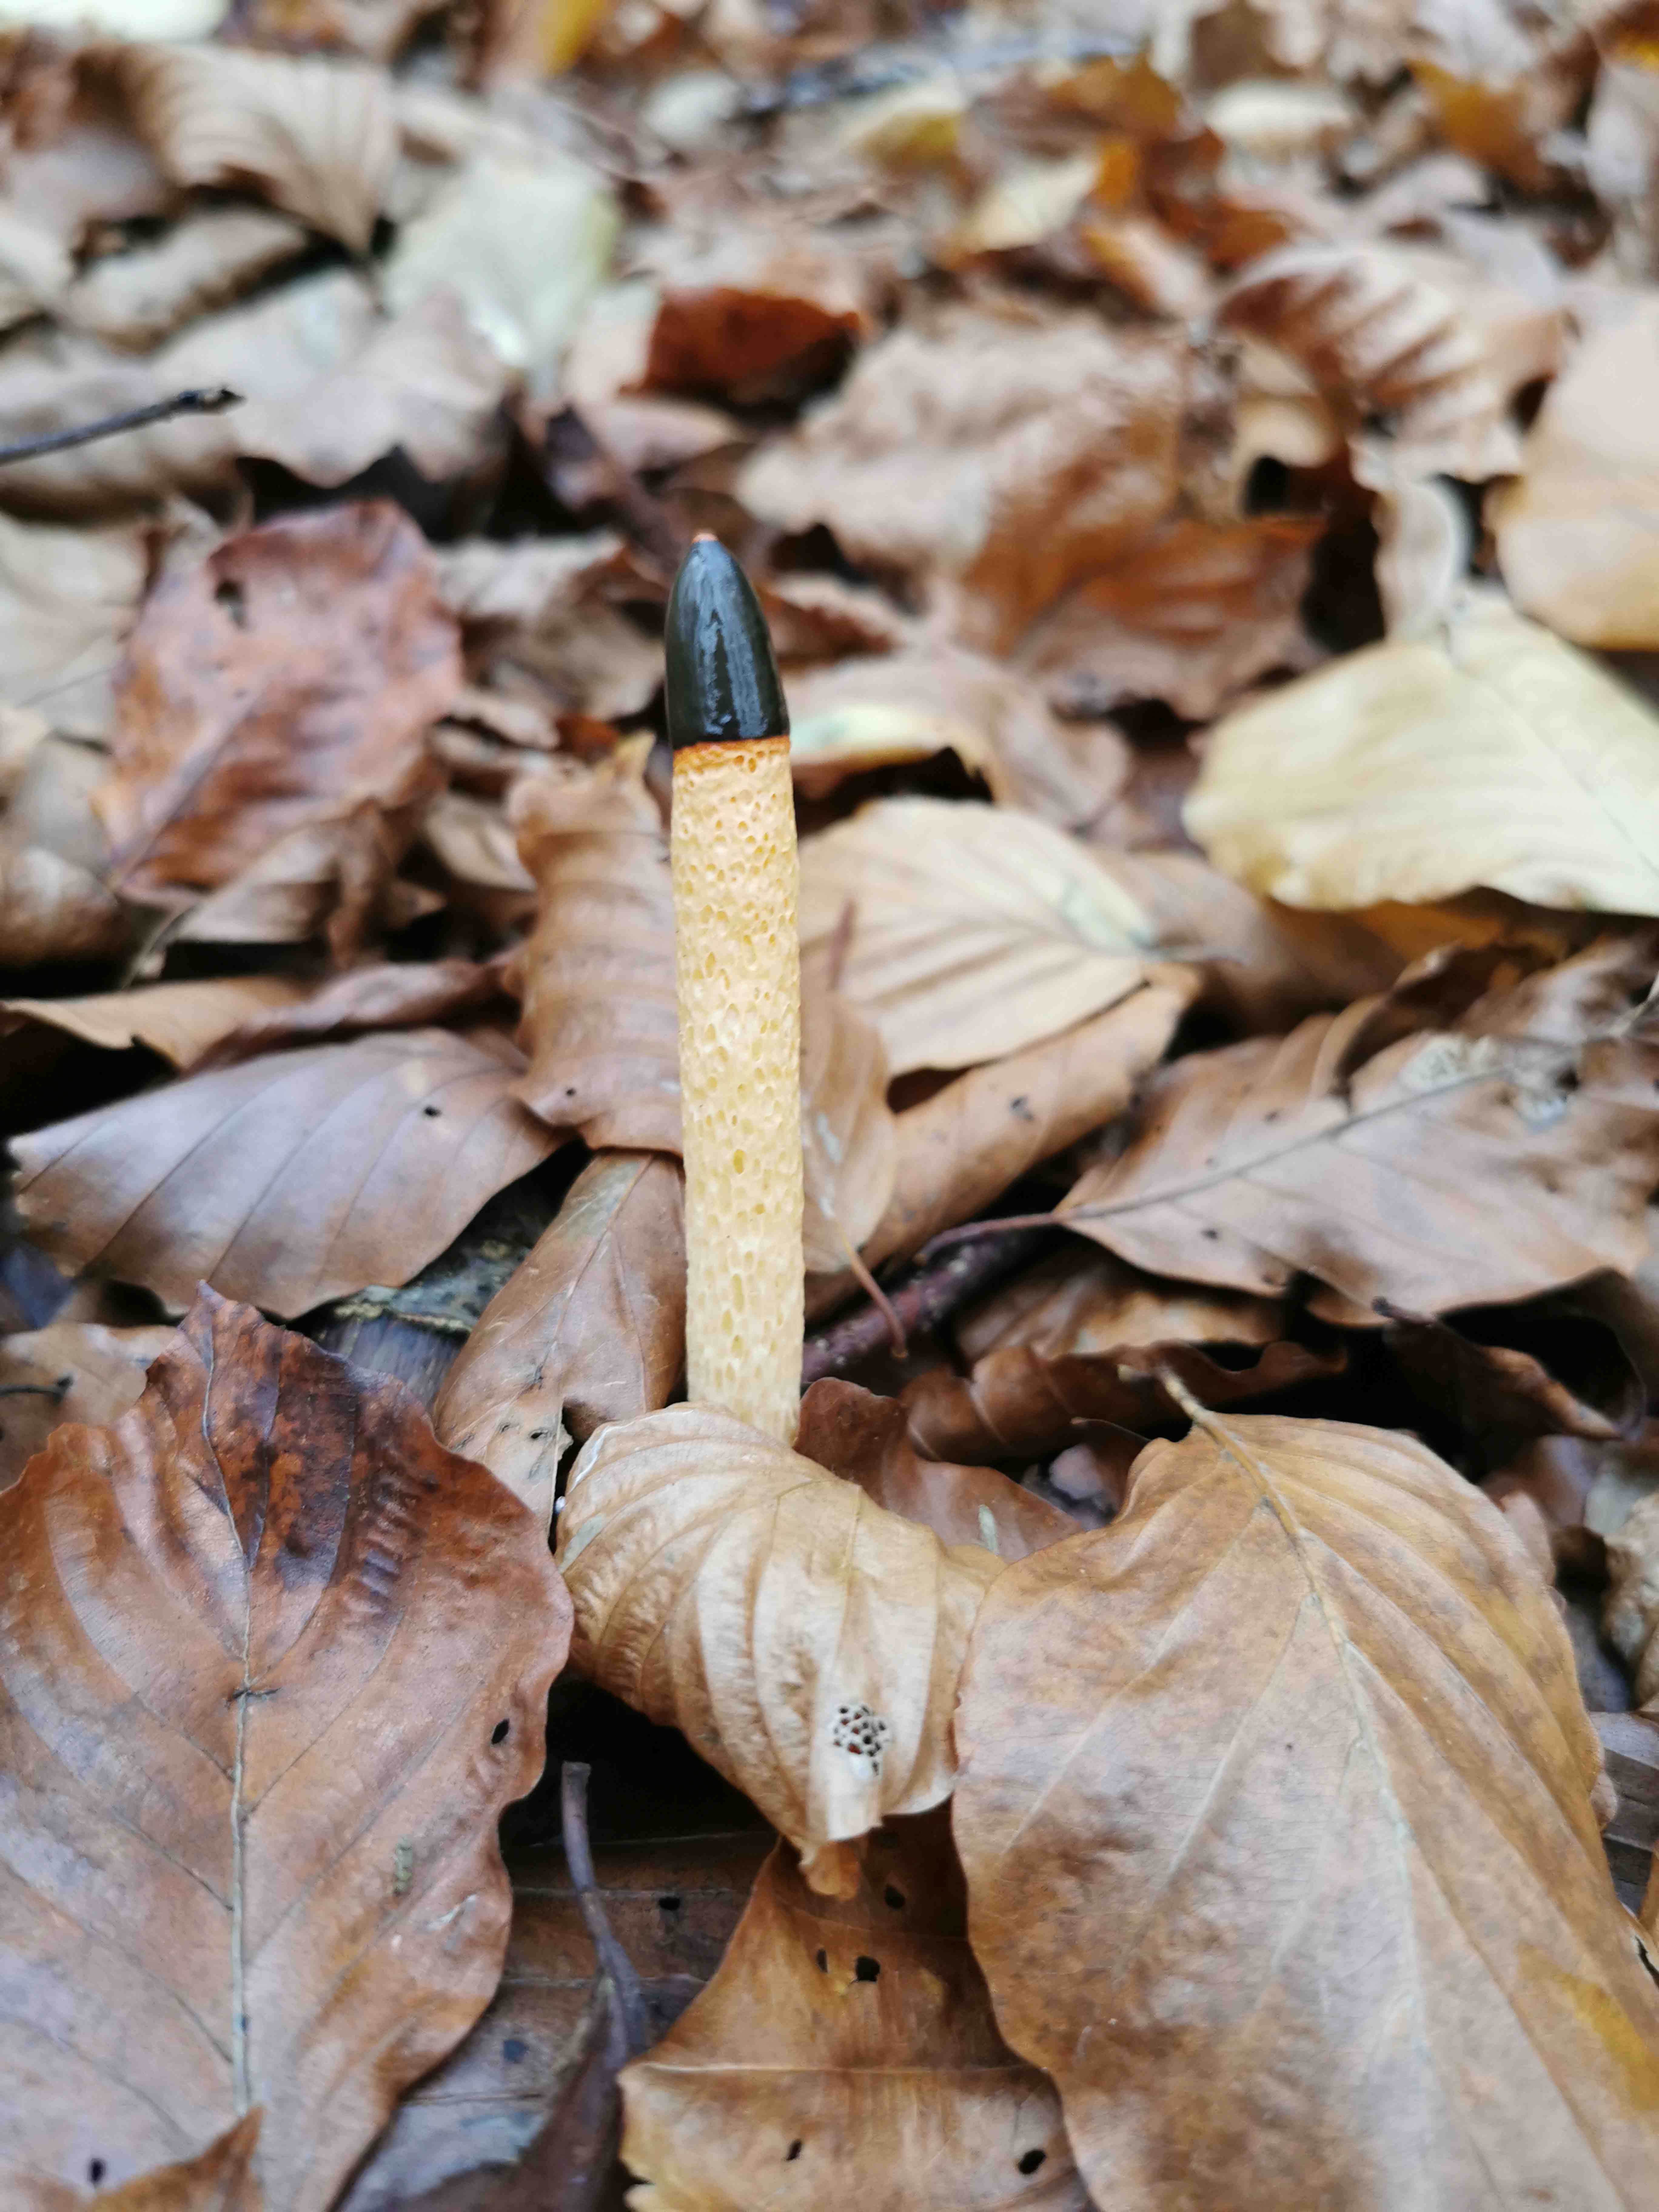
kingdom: Fungi
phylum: Basidiomycota
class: Agaricomycetes
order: Phallales
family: Phallaceae
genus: Mutinus
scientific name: Mutinus caninus
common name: hunde-stinksvamp
